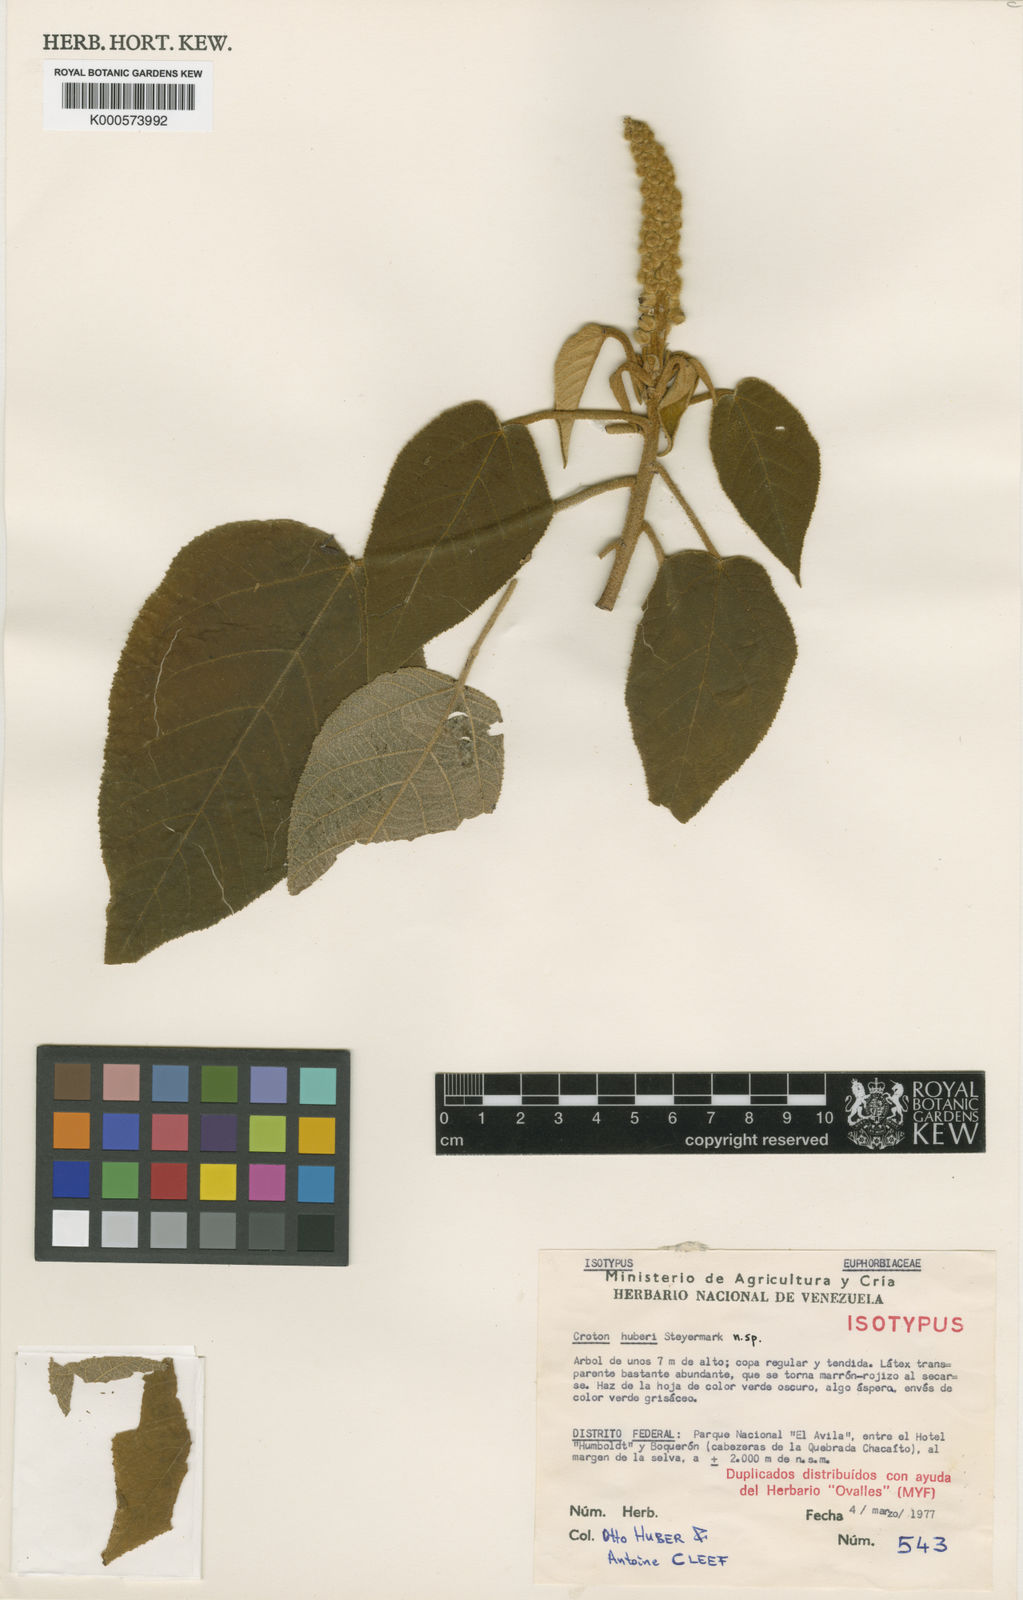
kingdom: Plantae
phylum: Tracheophyta
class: Magnoliopsida
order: Malpighiales
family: Euphorbiaceae
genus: Croton
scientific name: Croton huberi
